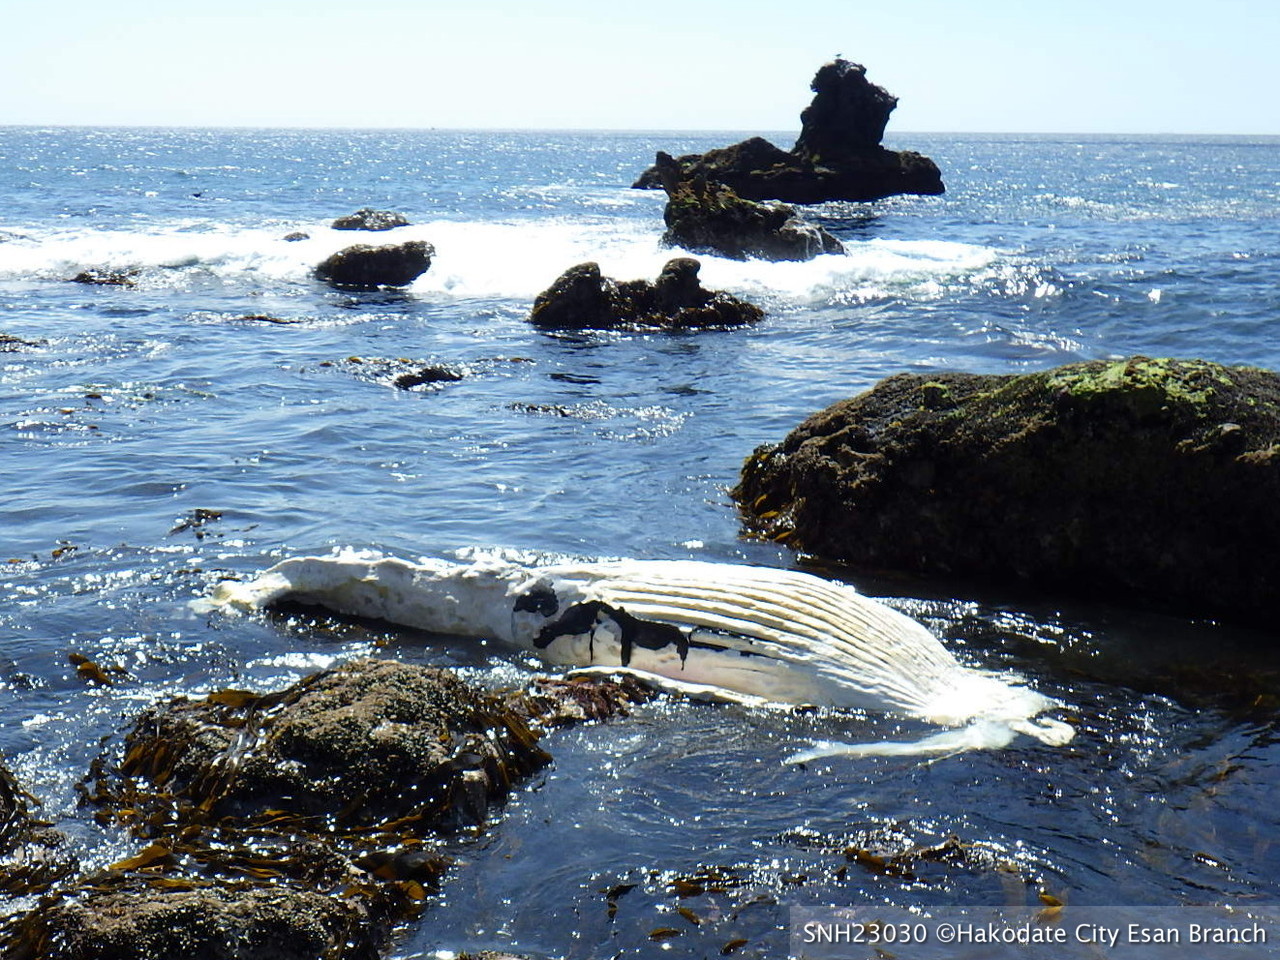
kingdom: Animalia
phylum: Chordata
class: Mammalia
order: Cetacea
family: Balaenopteridae
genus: Megaptera
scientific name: Megaptera novaeangliae
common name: Humpback whale
